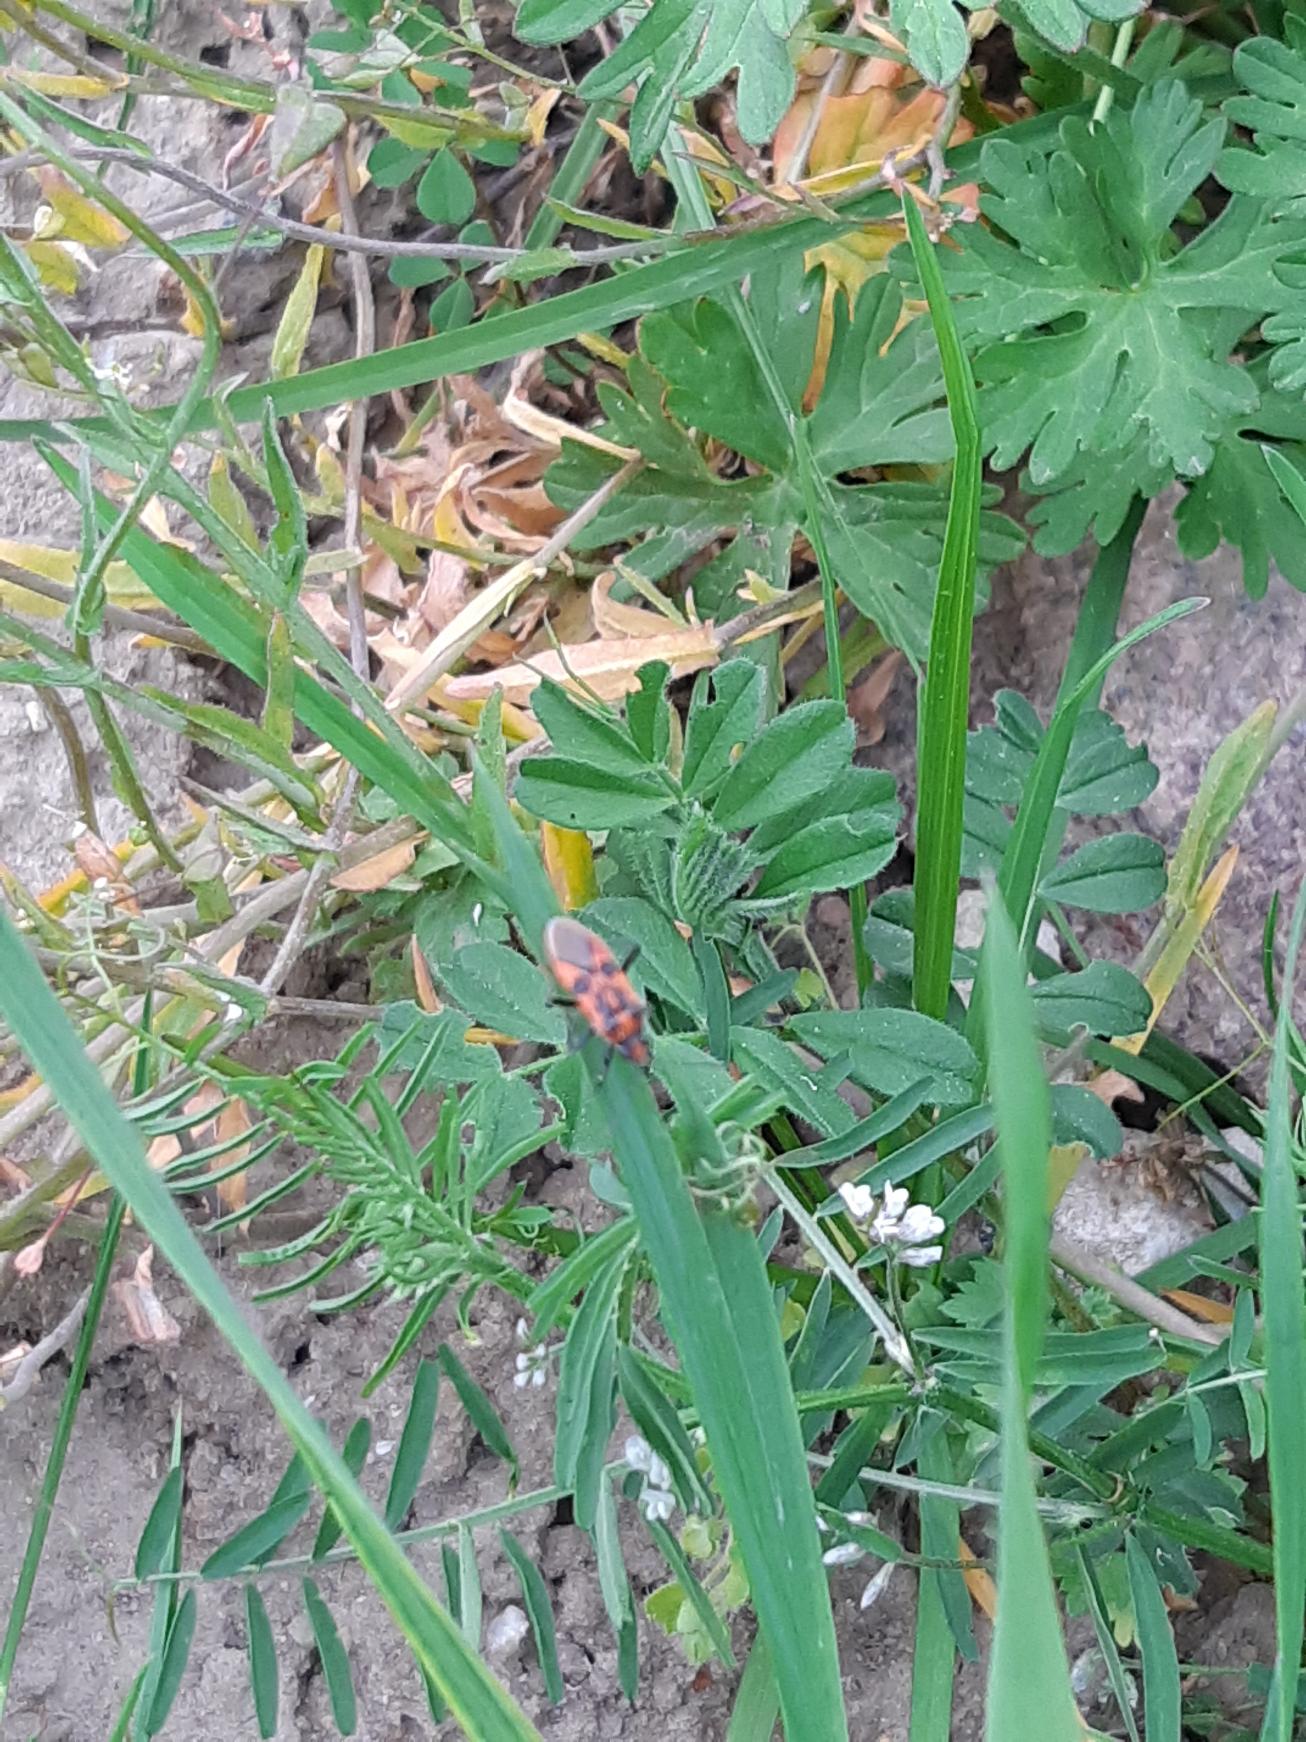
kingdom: Animalia
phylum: Arthropoda
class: Insecta
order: Hemiptera
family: Rhopalidae
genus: Corizus
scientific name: Corizus hyoscyami
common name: Rød kanttæge
